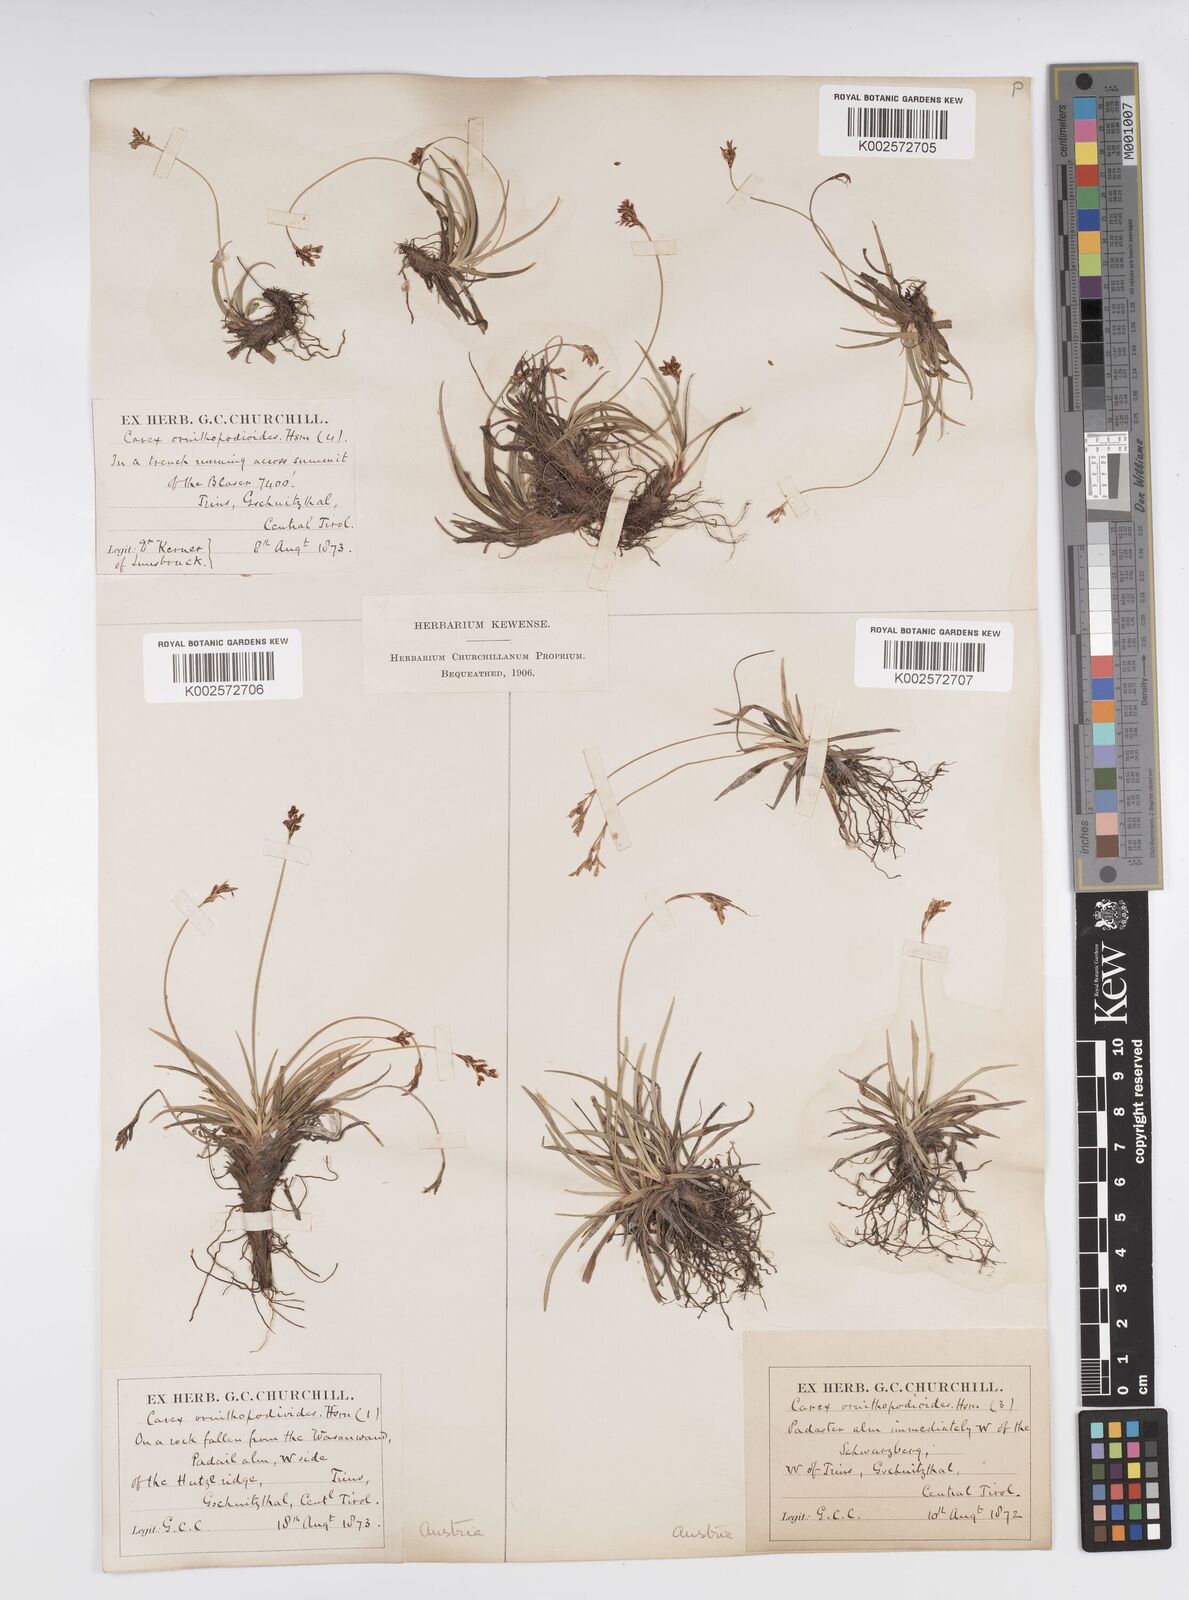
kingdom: Plantae
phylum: Tracheophyta
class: Liliopsida
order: Poales
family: Cyperaceae
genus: Carex
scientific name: Carex ornithopoda
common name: Bird's-foot sedge
